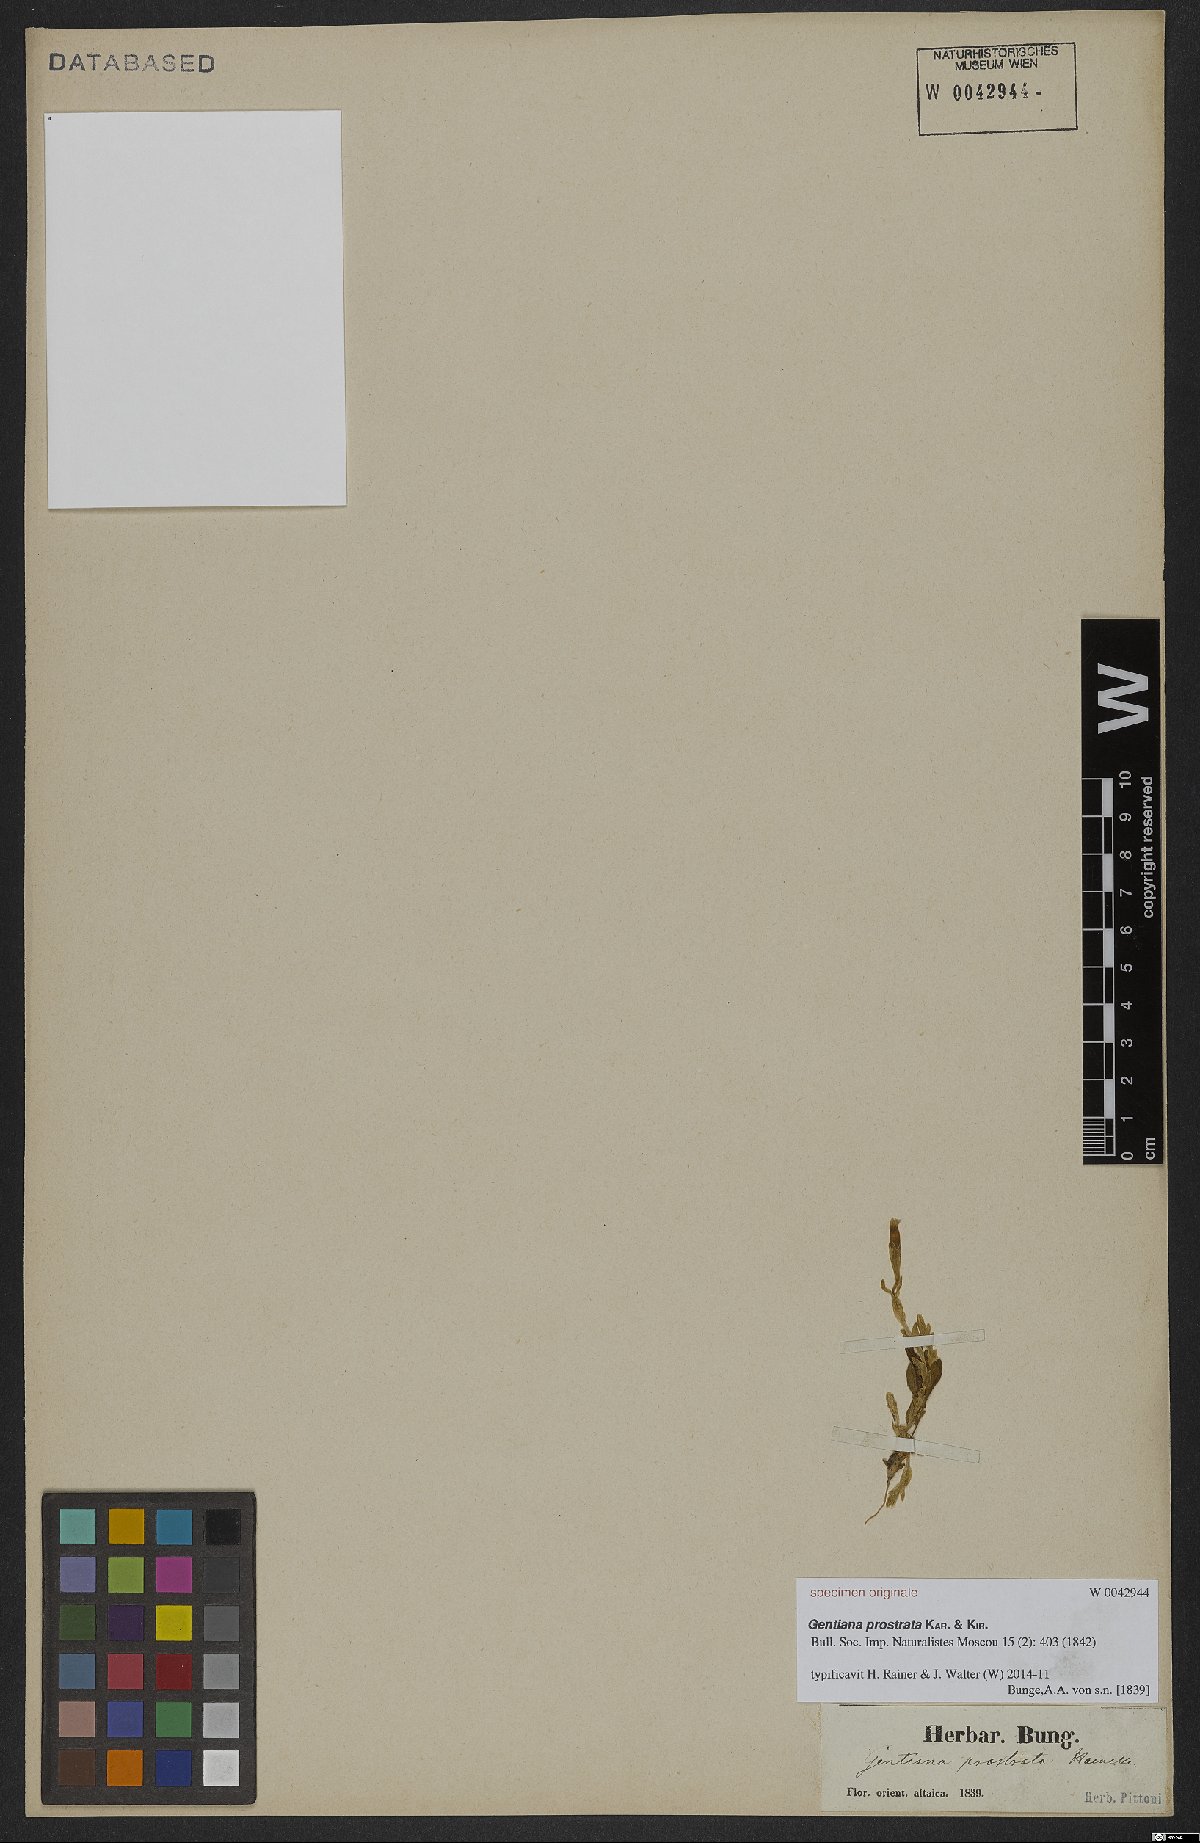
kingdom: Plantae
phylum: Tracheophyta
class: Magnoliopsida
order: Gentianales
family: Gentianaceae
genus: Gentiana
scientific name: Gentiana prostrata
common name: Moss gentian
